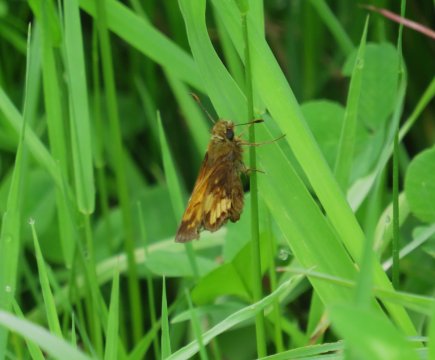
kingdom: Animalia
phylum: Arthropoda
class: Insecta
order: Lepidoptera
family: Hesperiidae
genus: Lon
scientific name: Lon hobomok
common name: Hobomok Skipper
